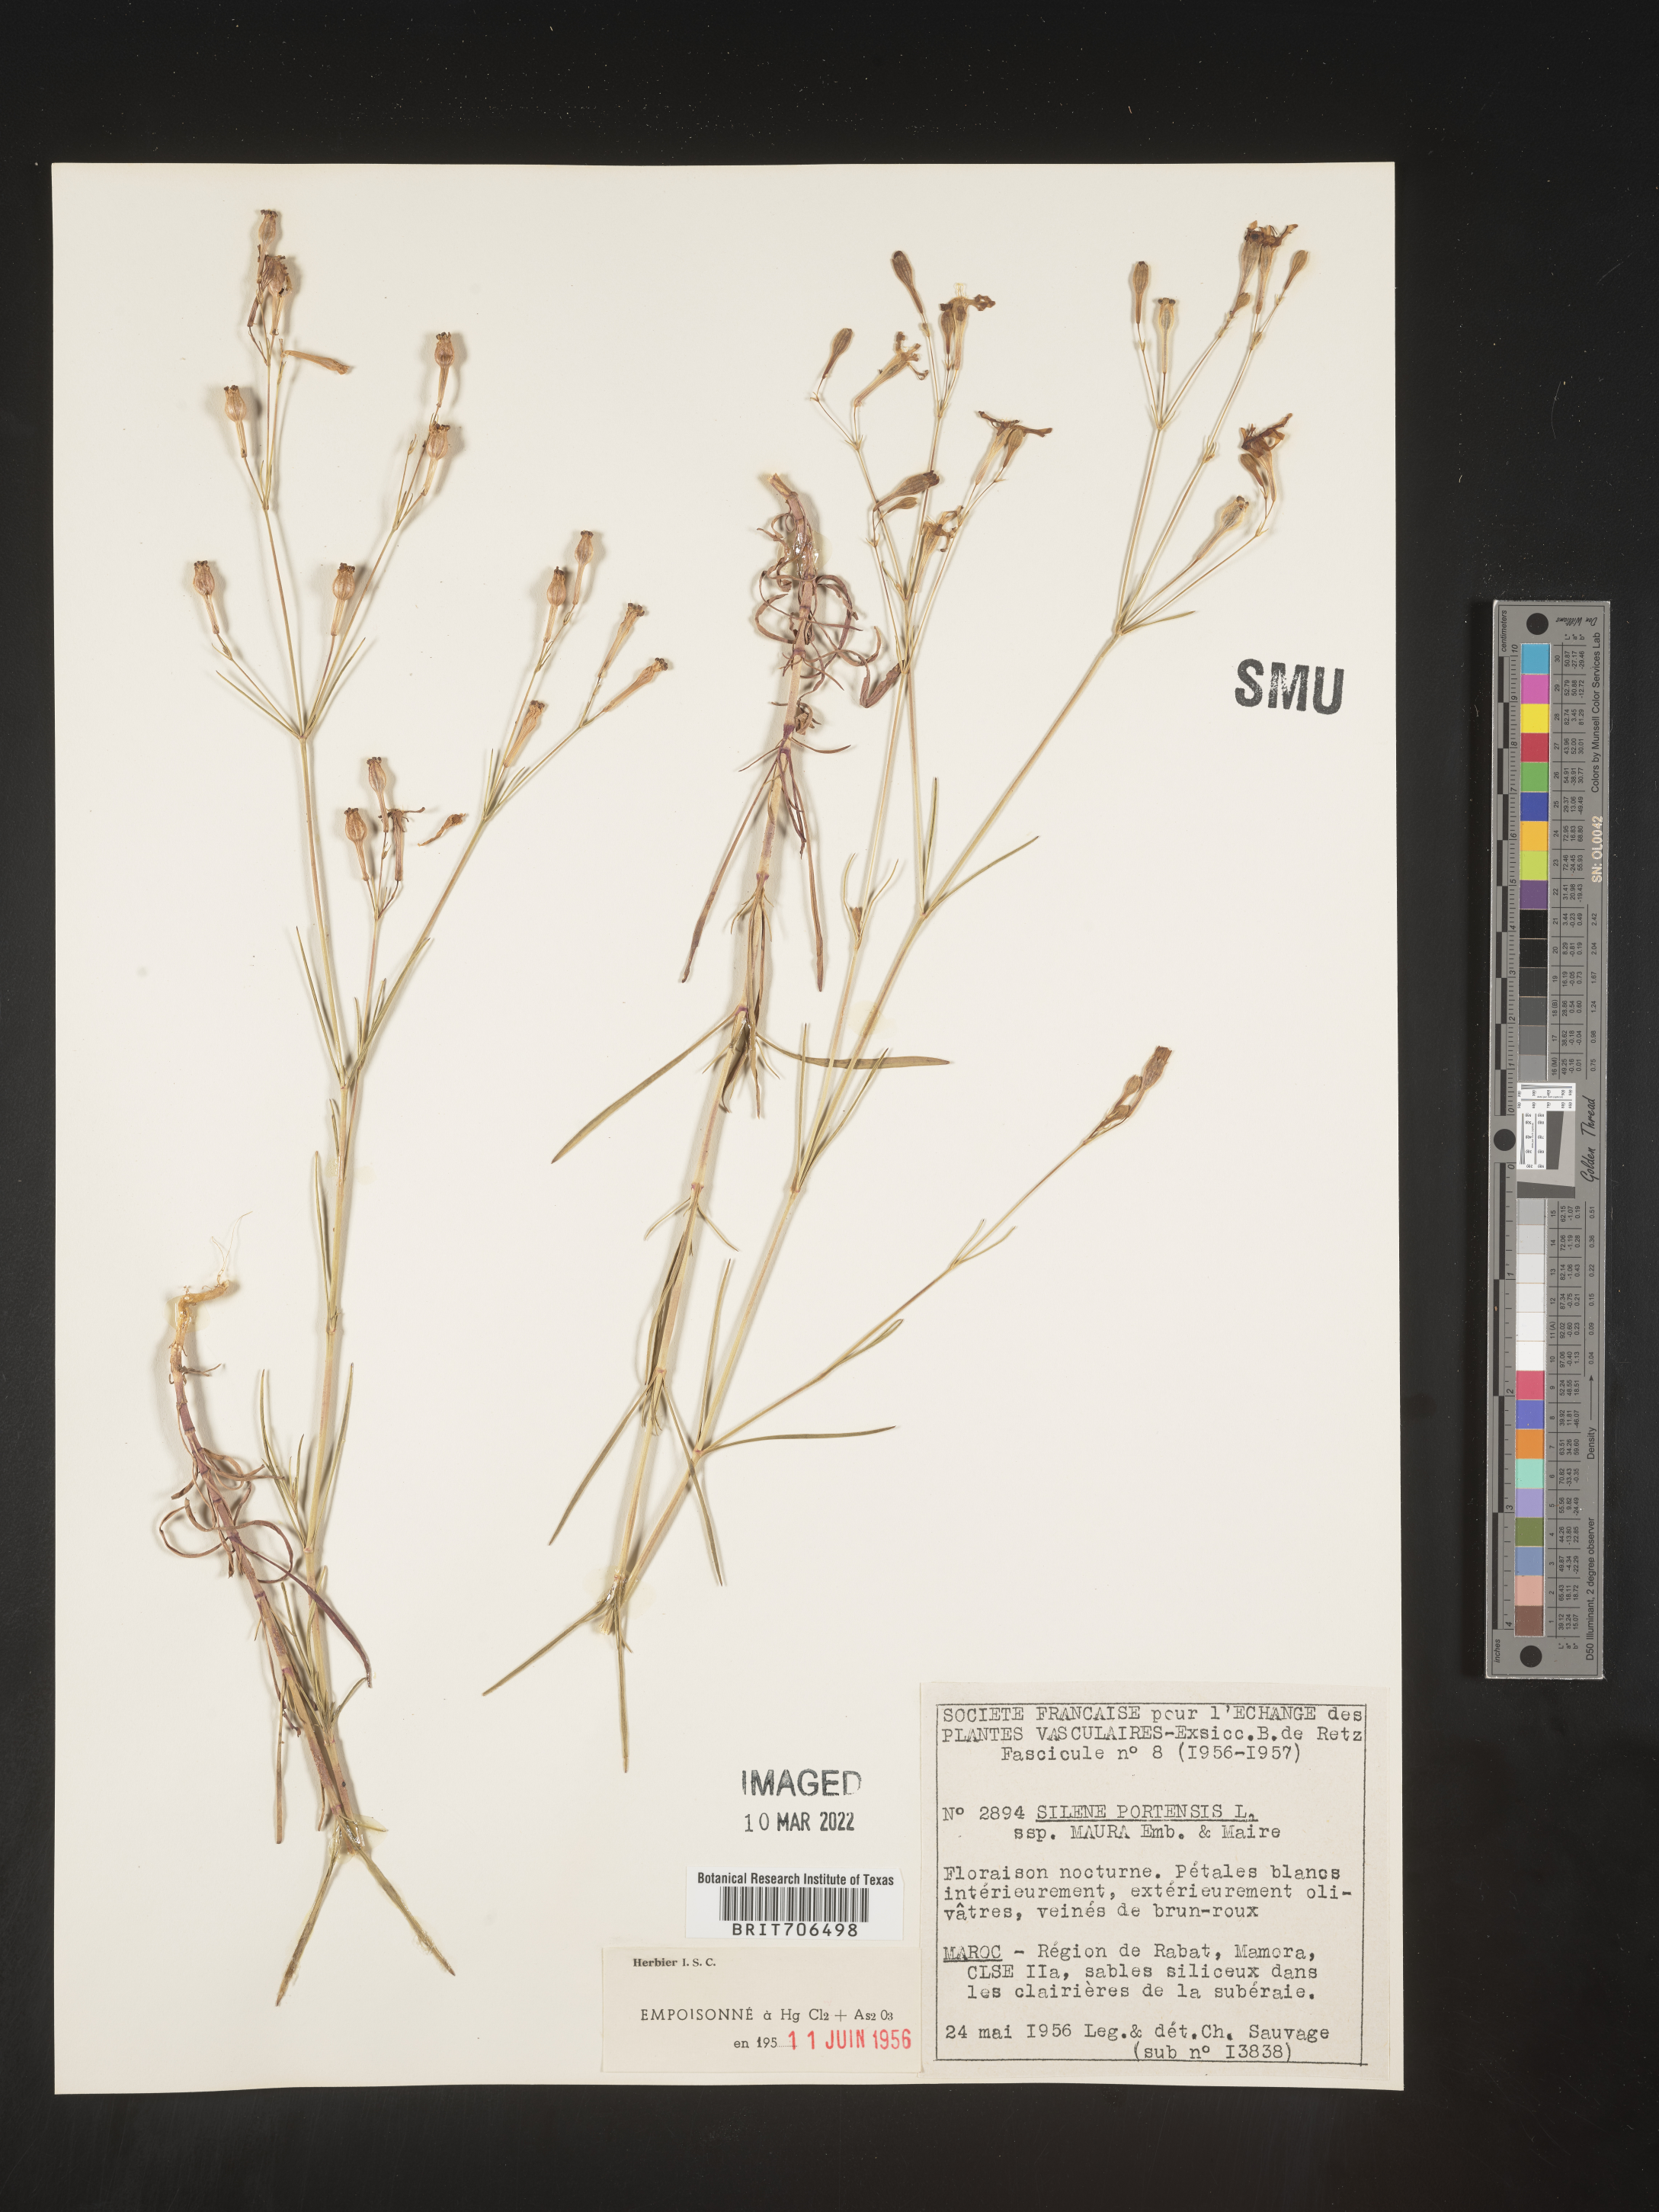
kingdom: Plantae
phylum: Tracheophyta
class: Magnoliopsida
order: Caryophyllales
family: Caryophyllaceae
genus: Silene
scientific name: Silene
